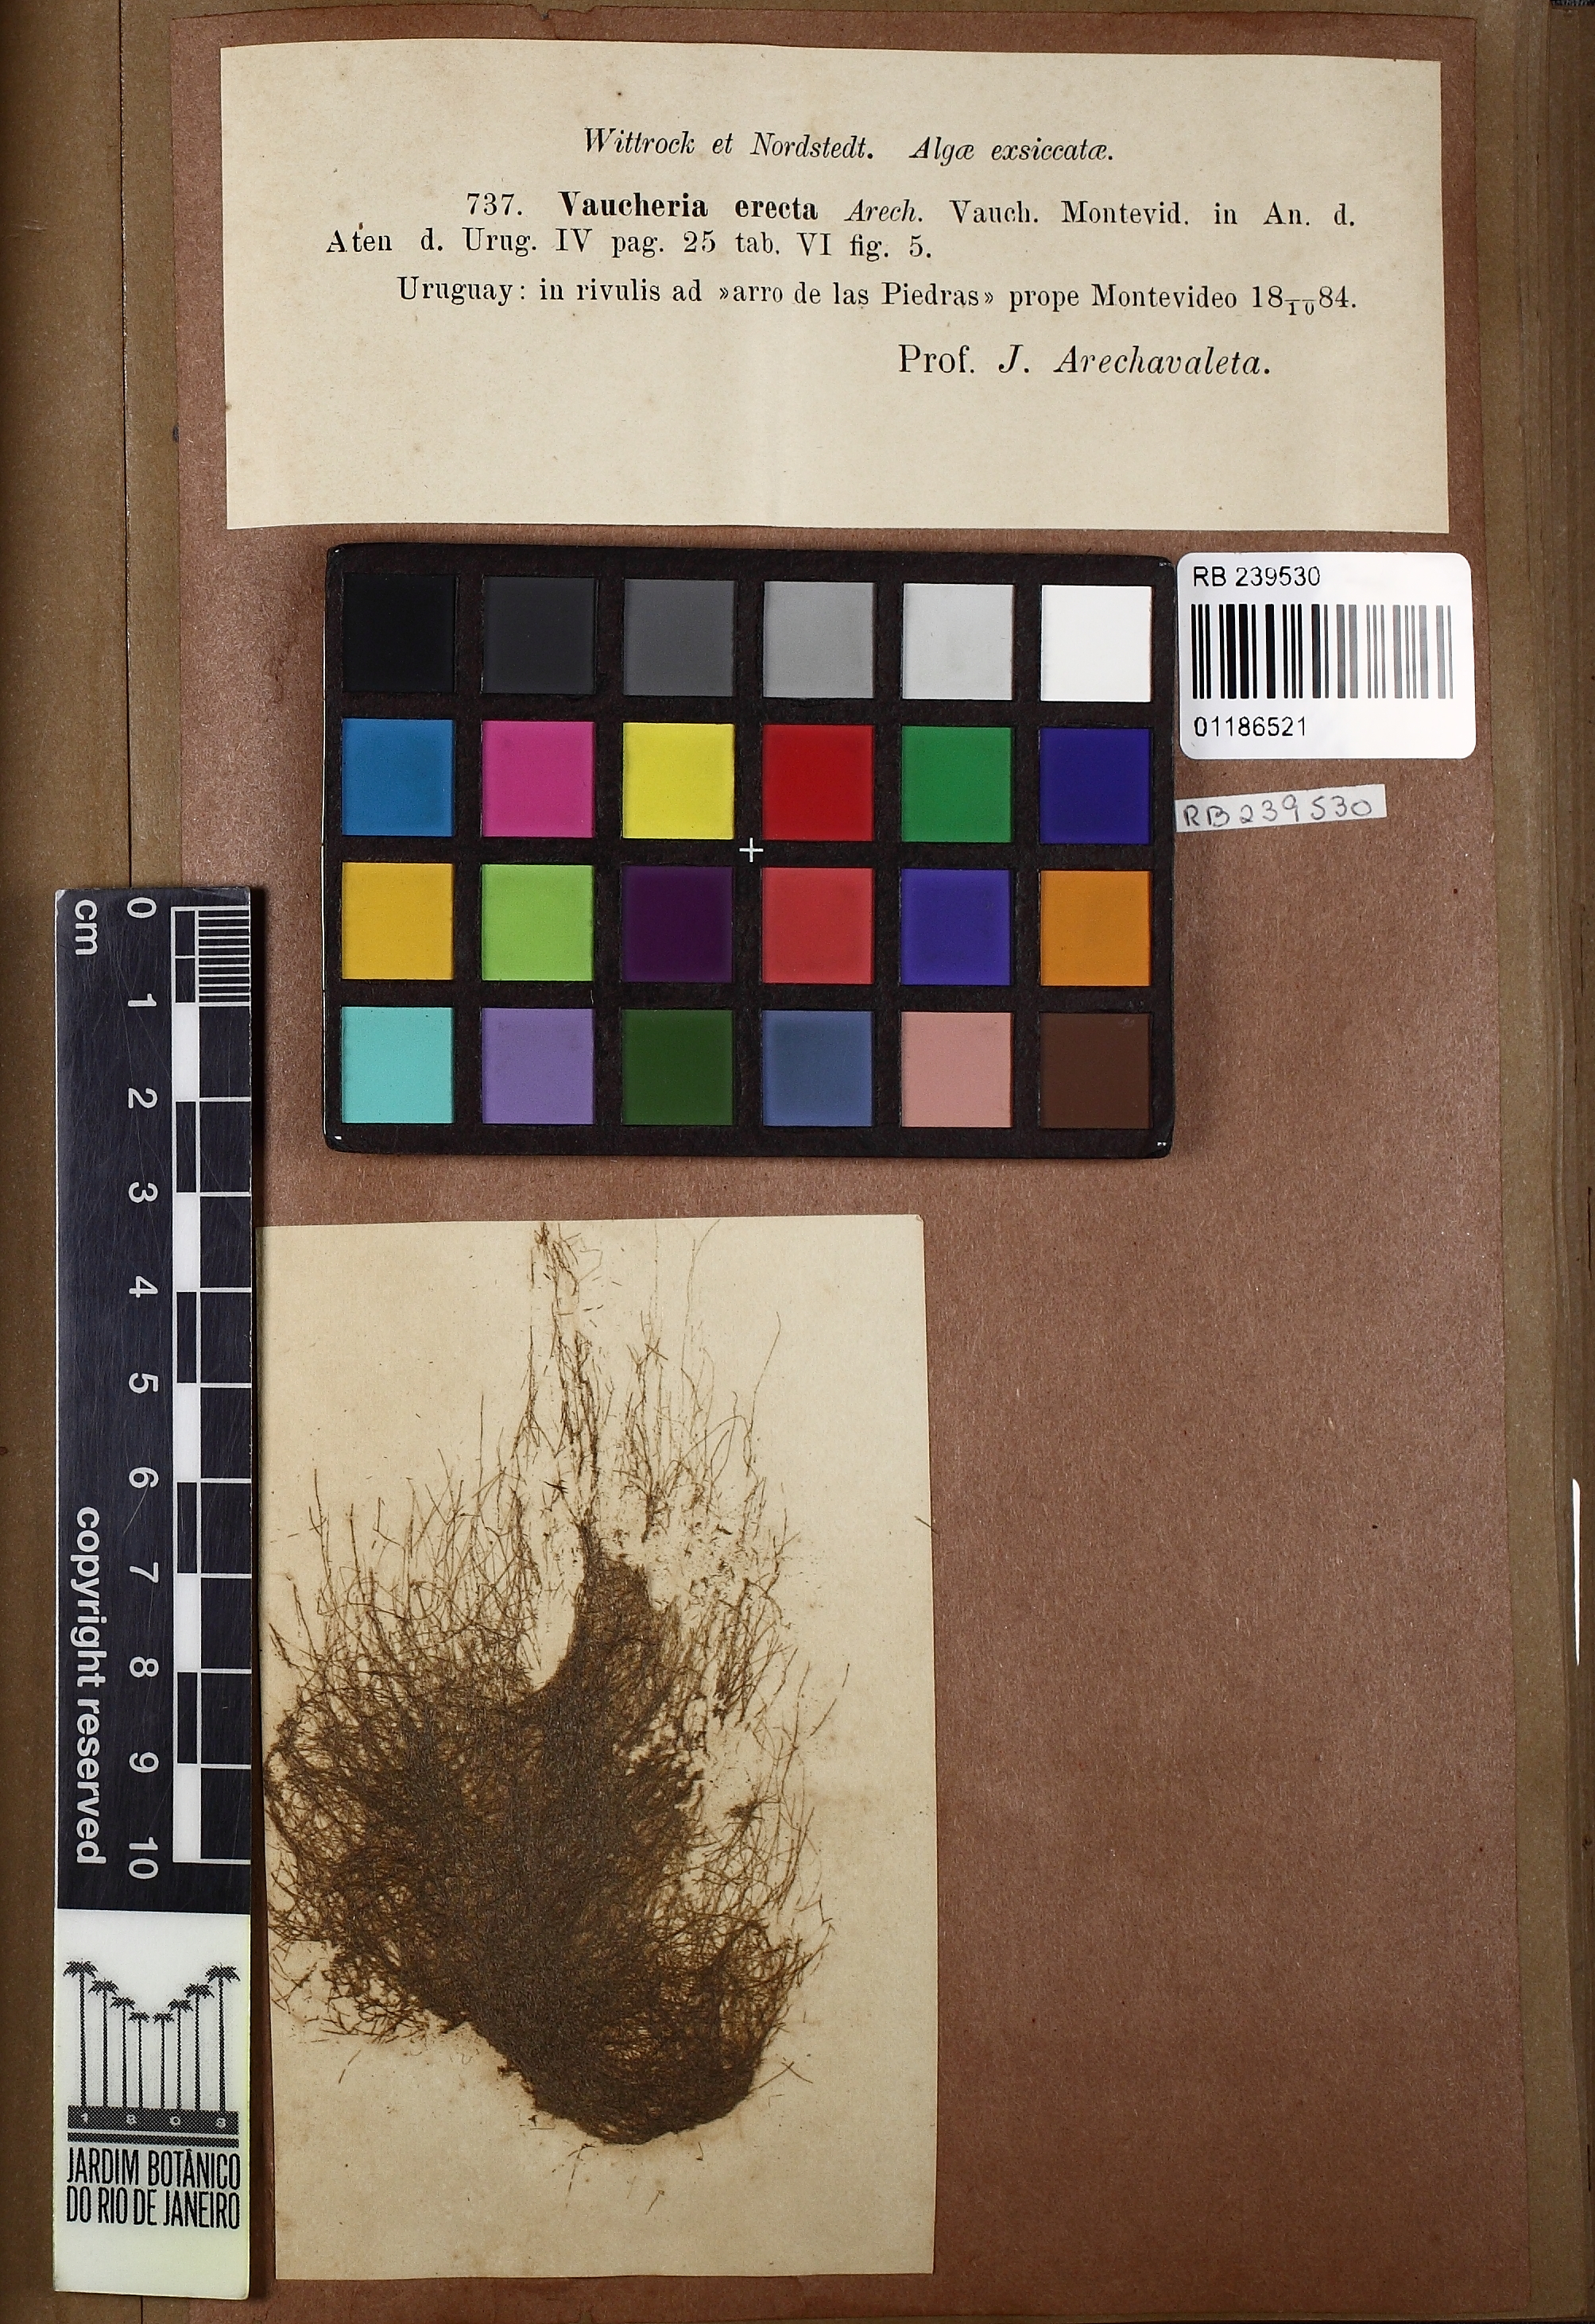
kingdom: Chromista
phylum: Ochrophyta
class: Xanthophyceae
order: Vaucheriales
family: Vaucheriaceae
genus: Vaucheria
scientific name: Vaucheria
